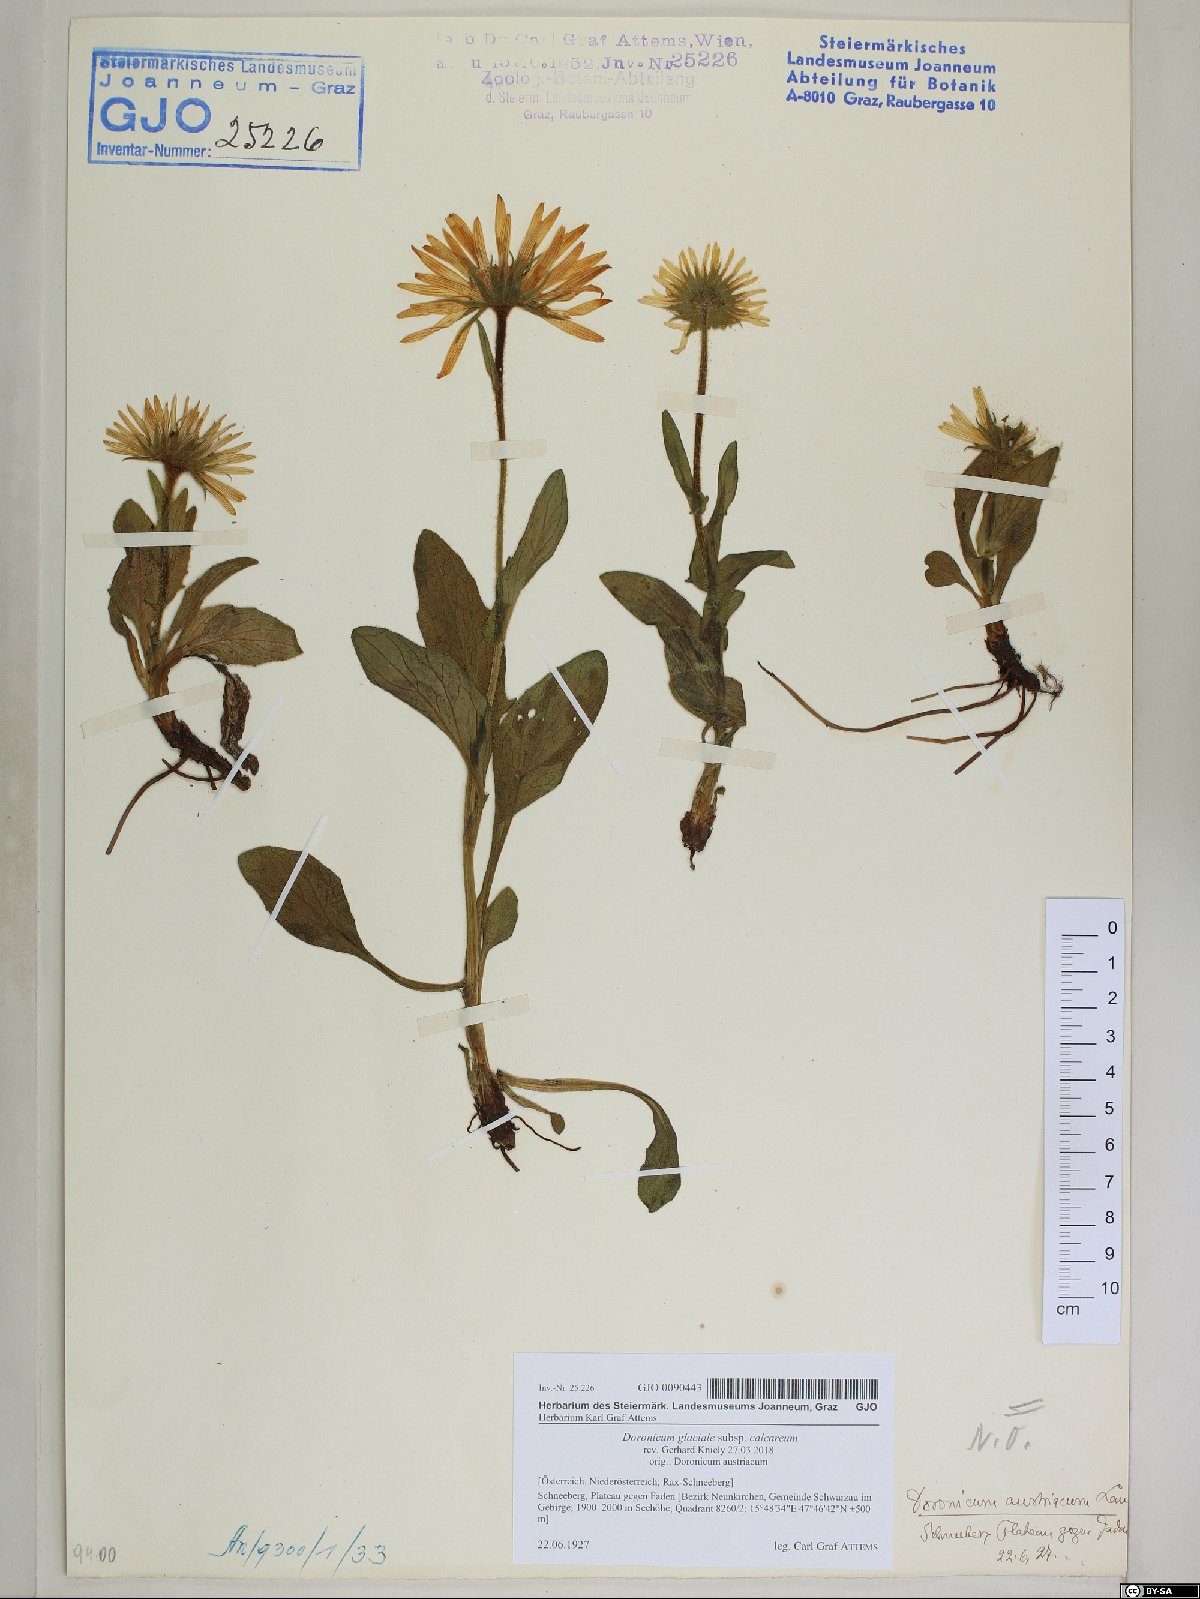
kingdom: Plantae
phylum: Tracheophyta
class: Magnoliopsida
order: Asterales
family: Asteraceae
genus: Doronicum
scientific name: Doronicum glaciale
